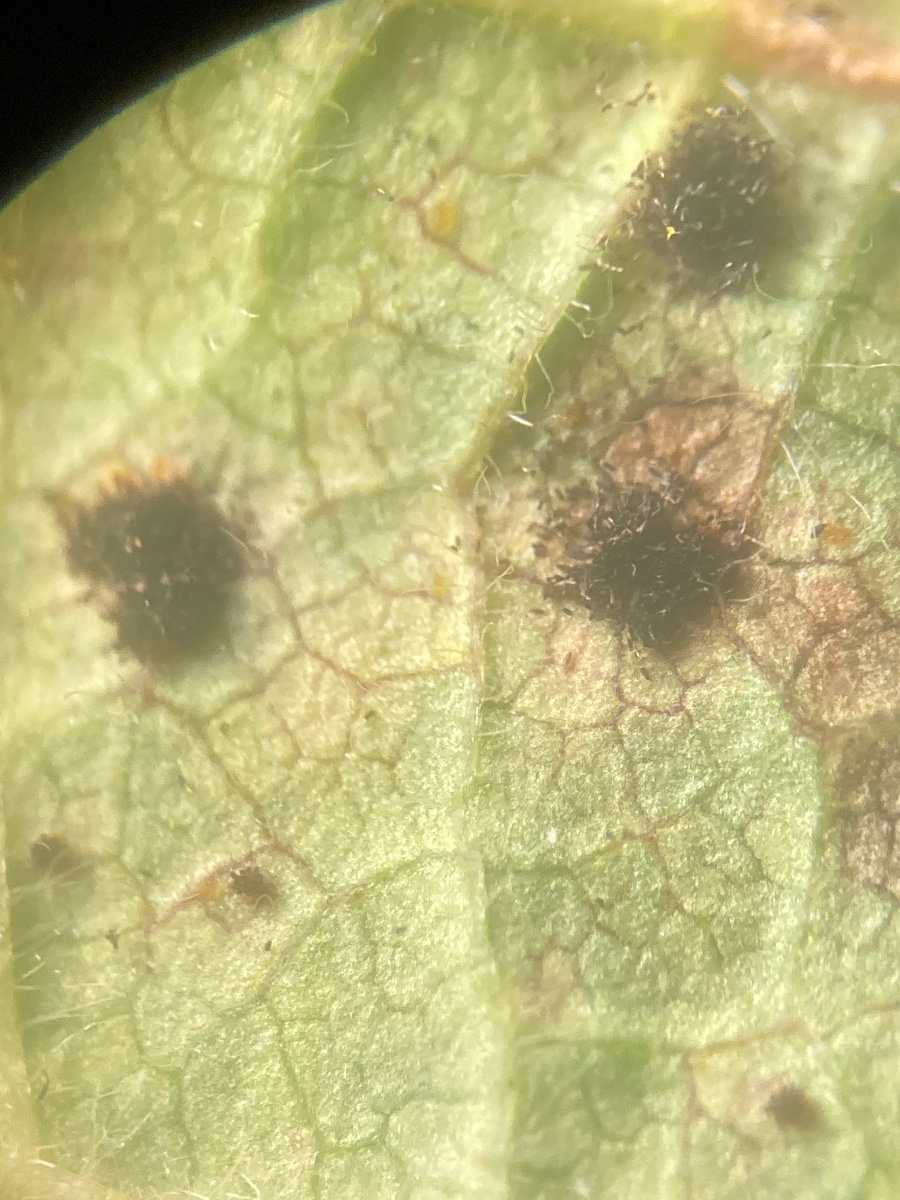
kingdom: Fungi
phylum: Basidiomycota
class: Pucciniomycetes
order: Pucciniales
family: Phragmidiaceae
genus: Phragmidium
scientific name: Phragmidium bulbosum
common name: brombær-flercellerust
